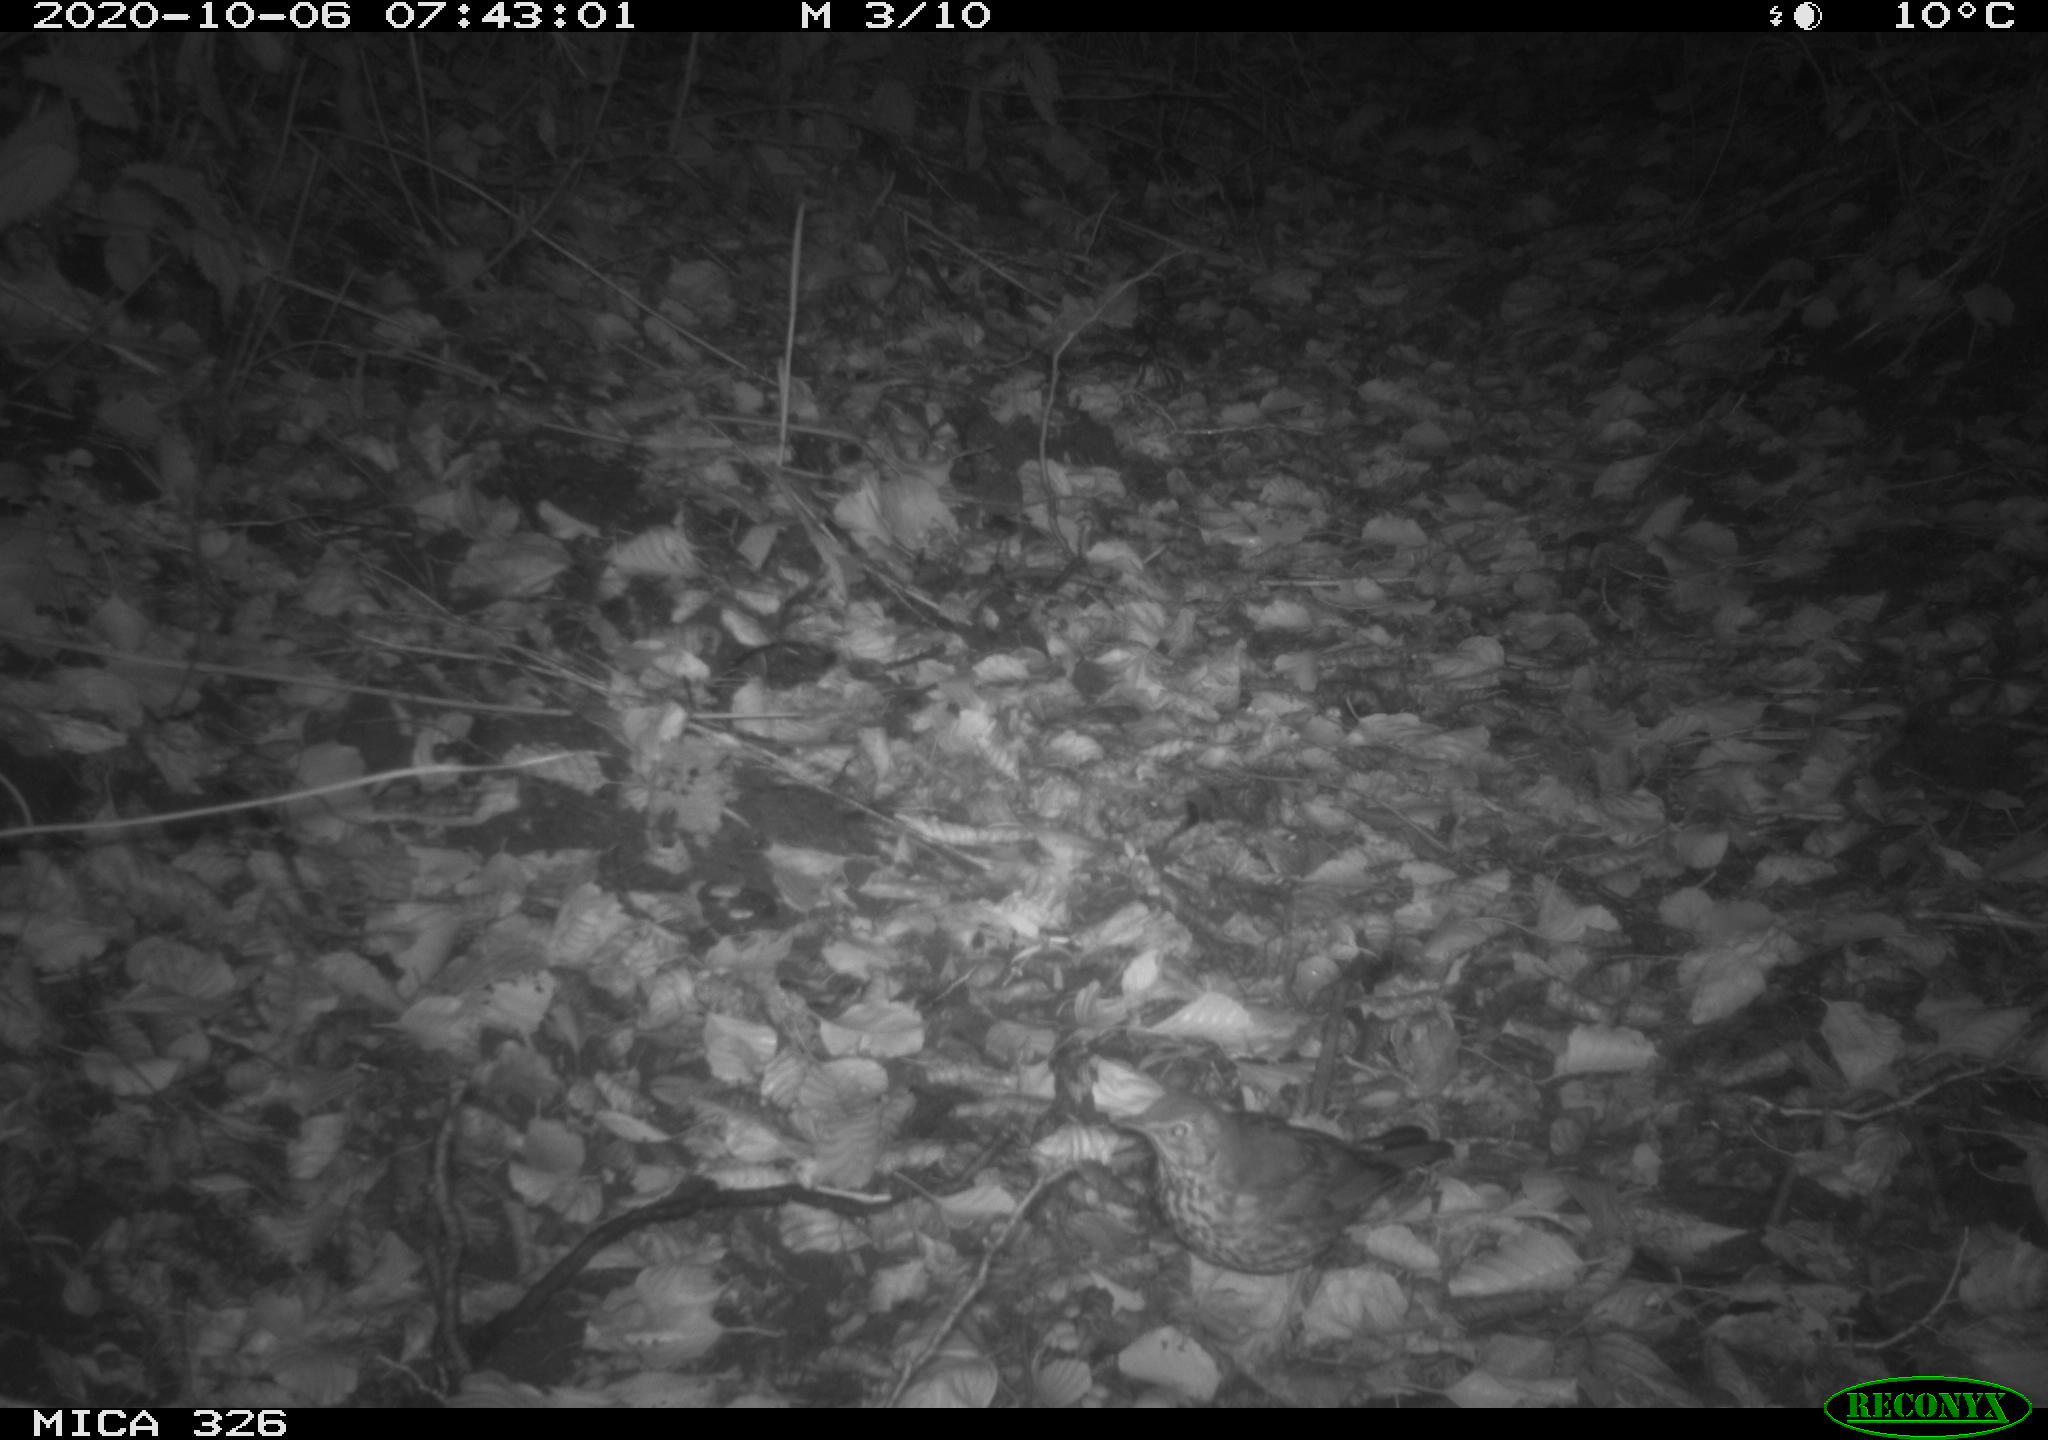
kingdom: Animalia
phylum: Chordata
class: Aves
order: Passeriformes
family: Turdidae
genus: Turdus
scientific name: Turdus philomelos
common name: Song thrush
